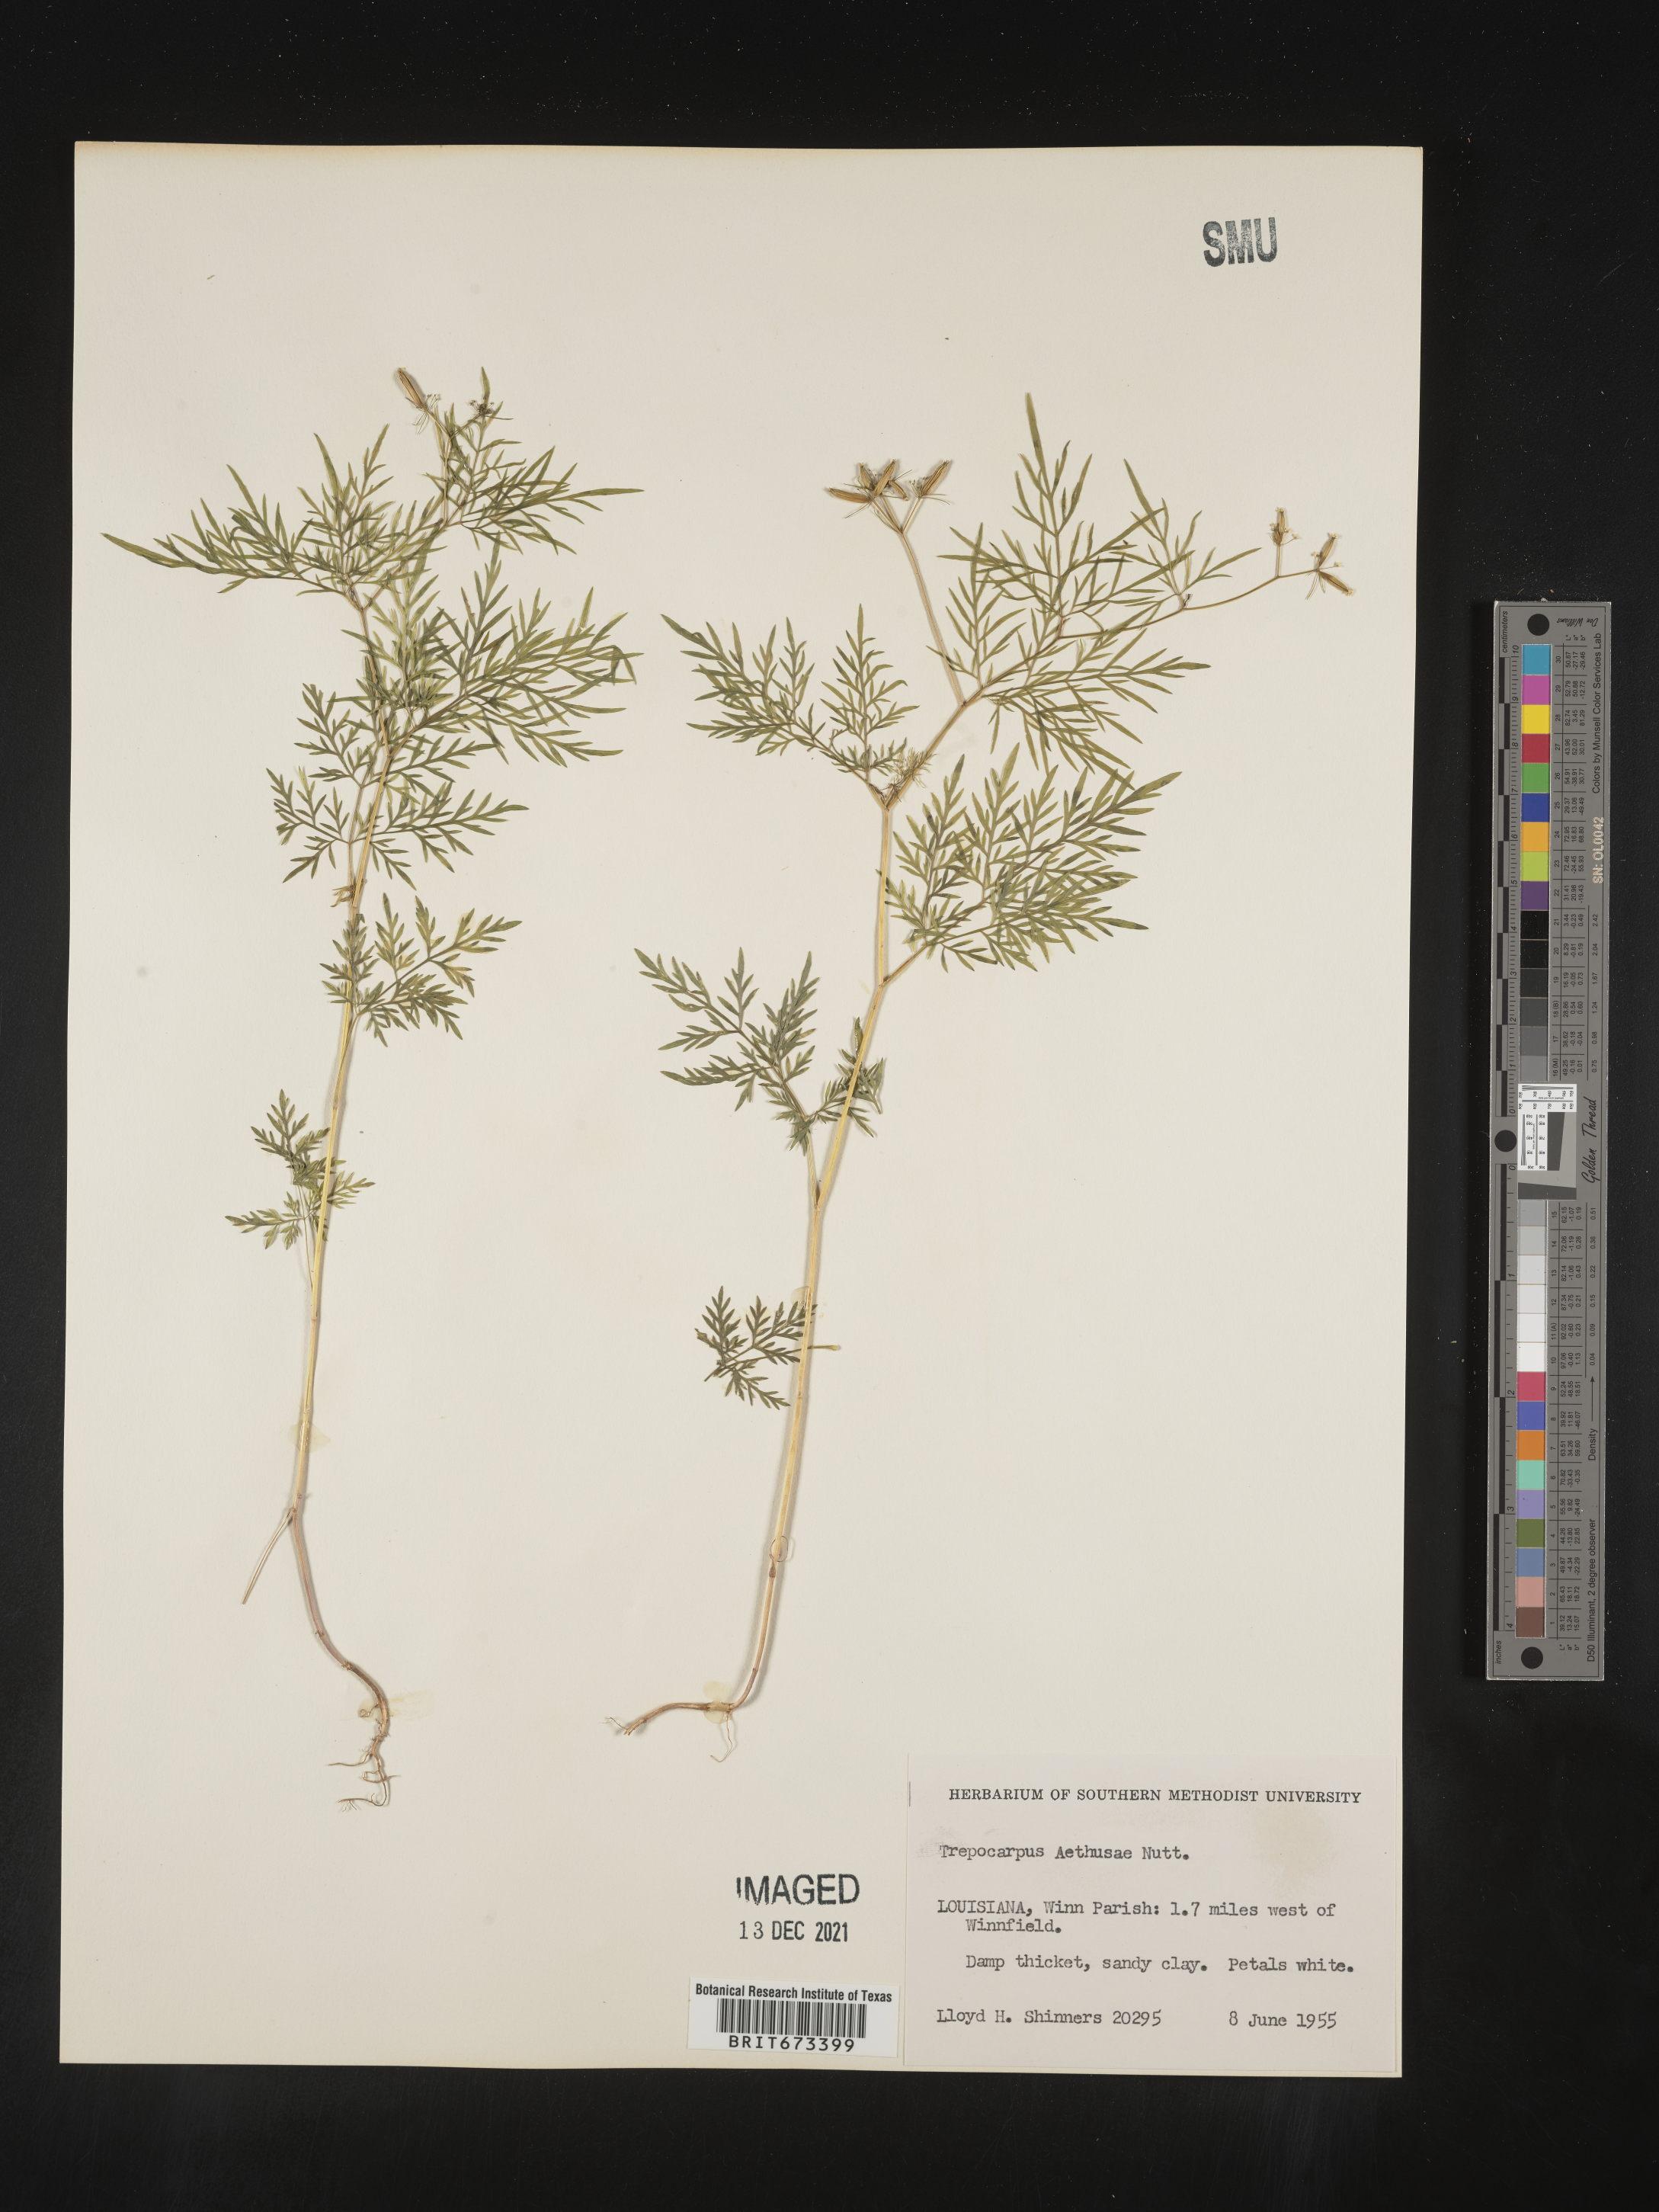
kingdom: Plantae
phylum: Tracheophyta
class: Magnoliopsida
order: Apiales
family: Apiaceae
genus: Trepocarpus
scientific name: Trepocarpus aethusae
